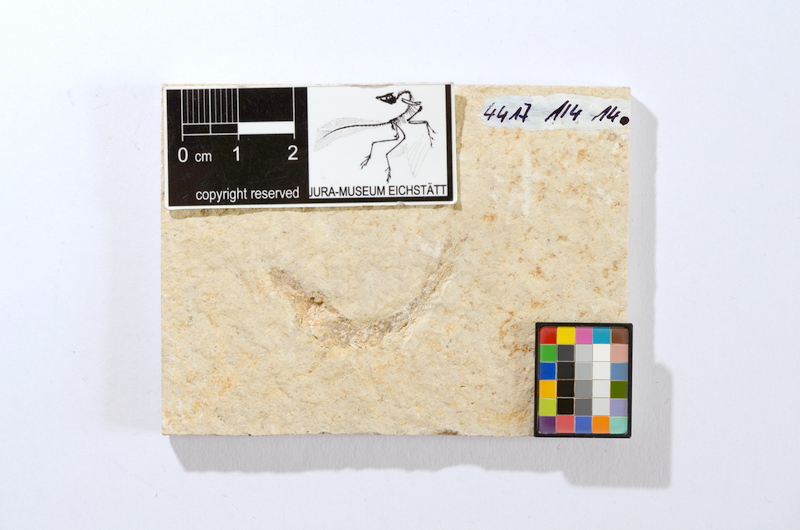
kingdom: Animalia
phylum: Chordata
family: Ascalaboidae
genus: Tharsis
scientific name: Tharsis dubius
